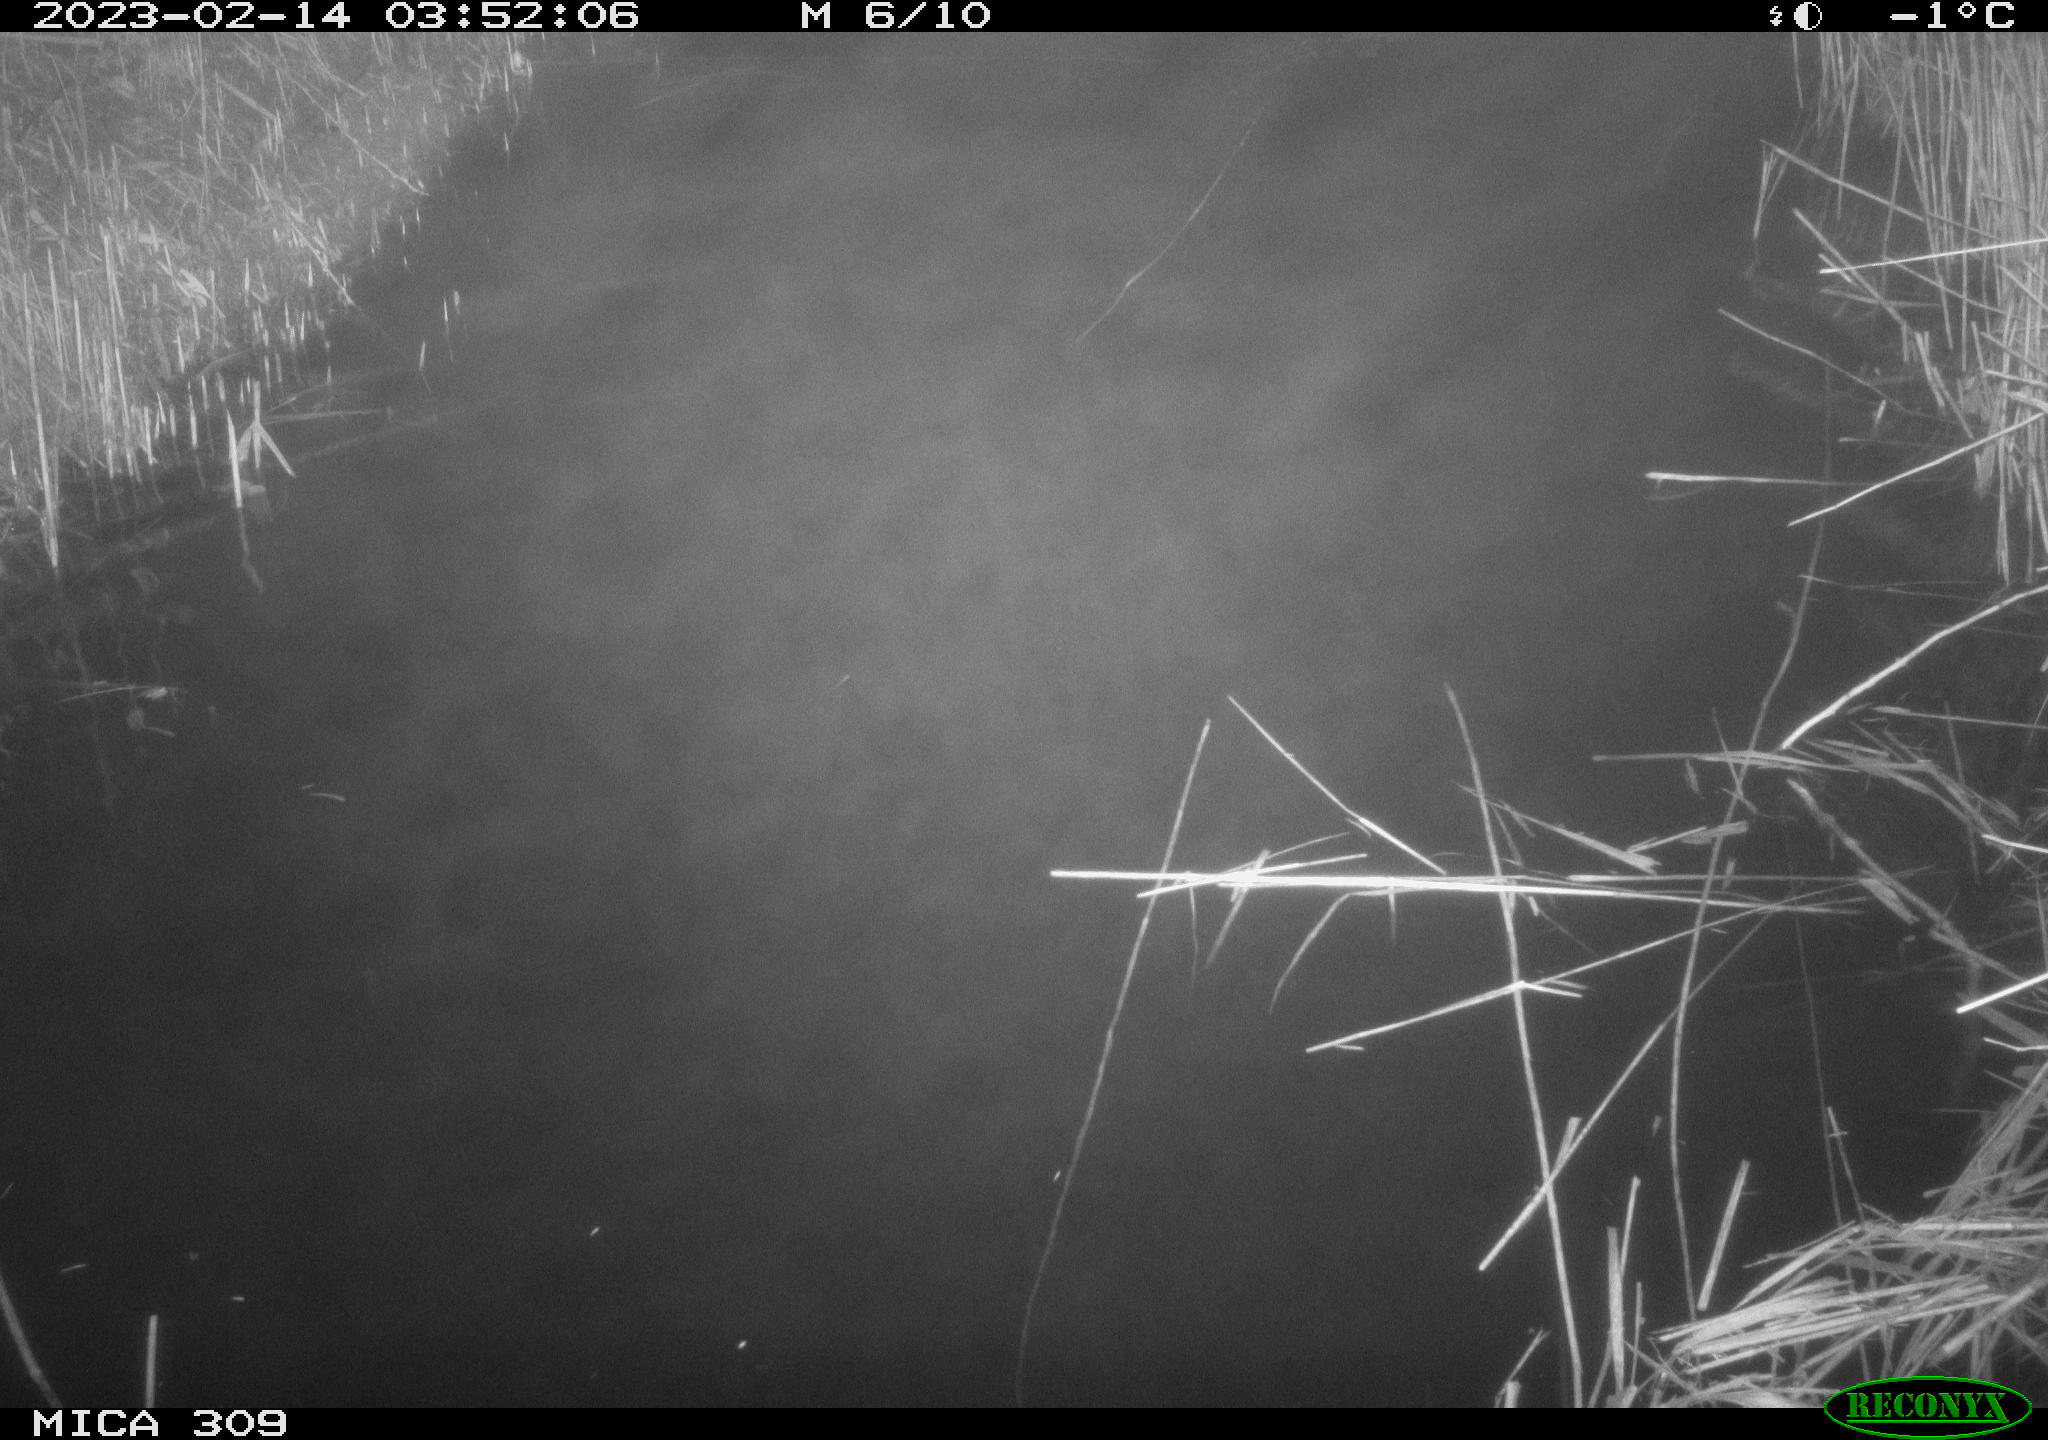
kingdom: Animalia
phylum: Chordata
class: Mammalia
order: Rodentia
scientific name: Rodentia
